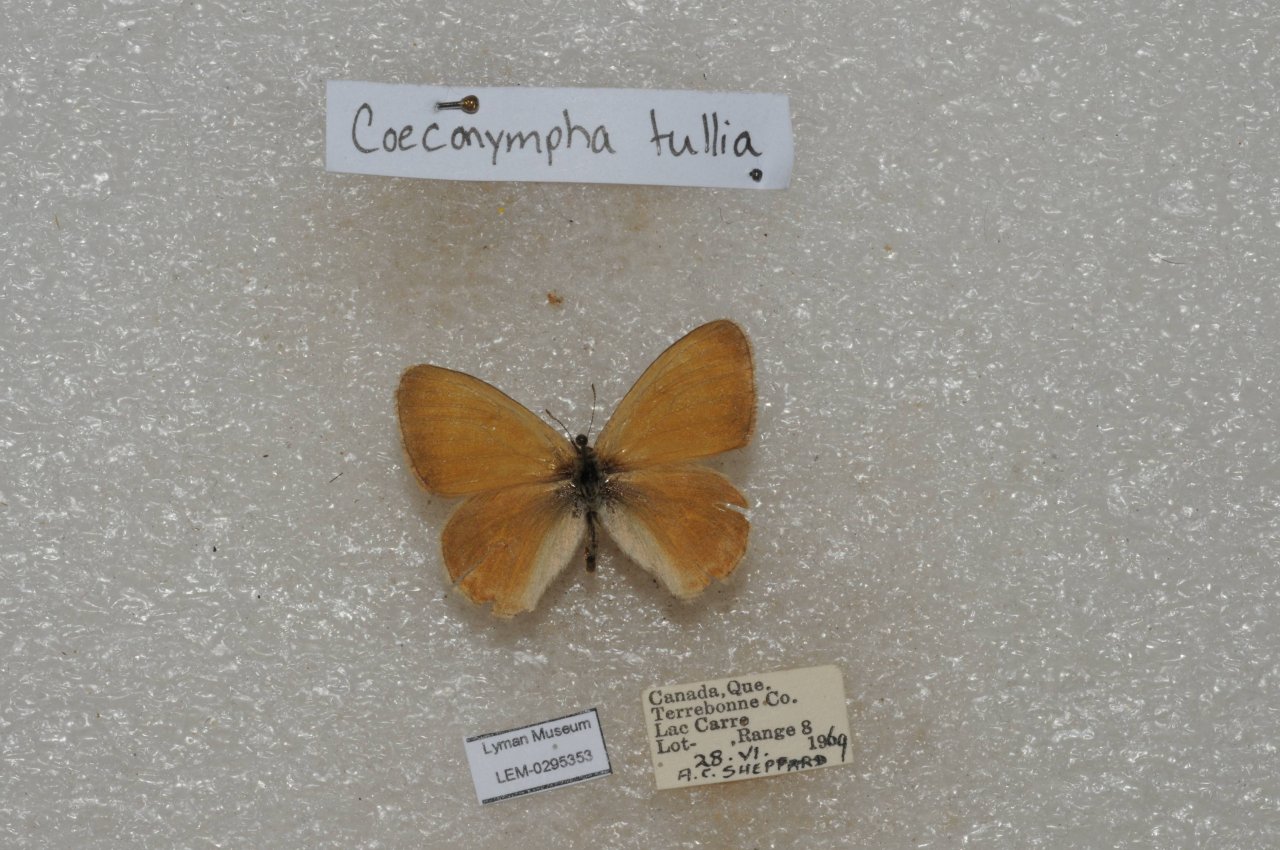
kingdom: Animalia
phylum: Arthropoda
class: Insecta
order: Lepidoptera
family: Nymphalidae
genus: Coenonympha
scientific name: Coenonympha tullia
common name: Large Heath
